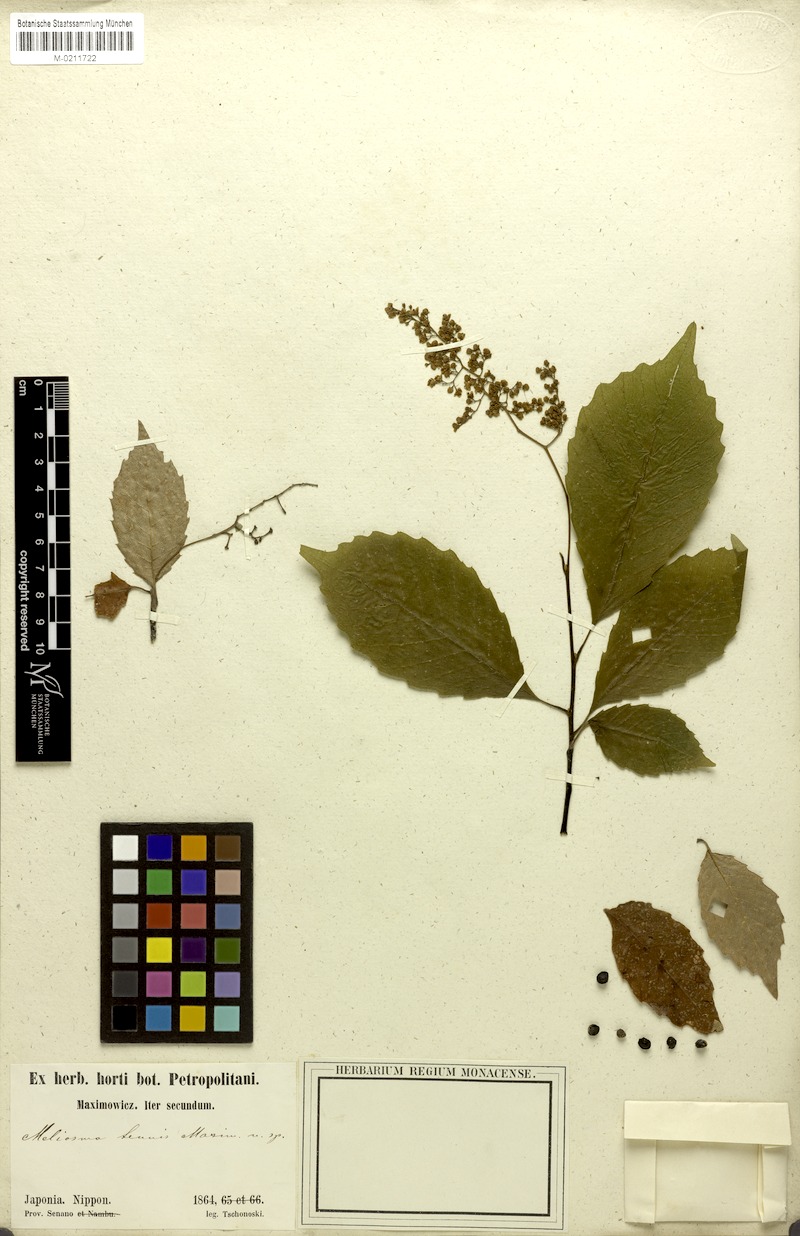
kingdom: Plantae
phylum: Tracheophyta
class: Magnoliopsida
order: Proteales
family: Sabiaceae
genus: Meliosma
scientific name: Meliosma tenuis
